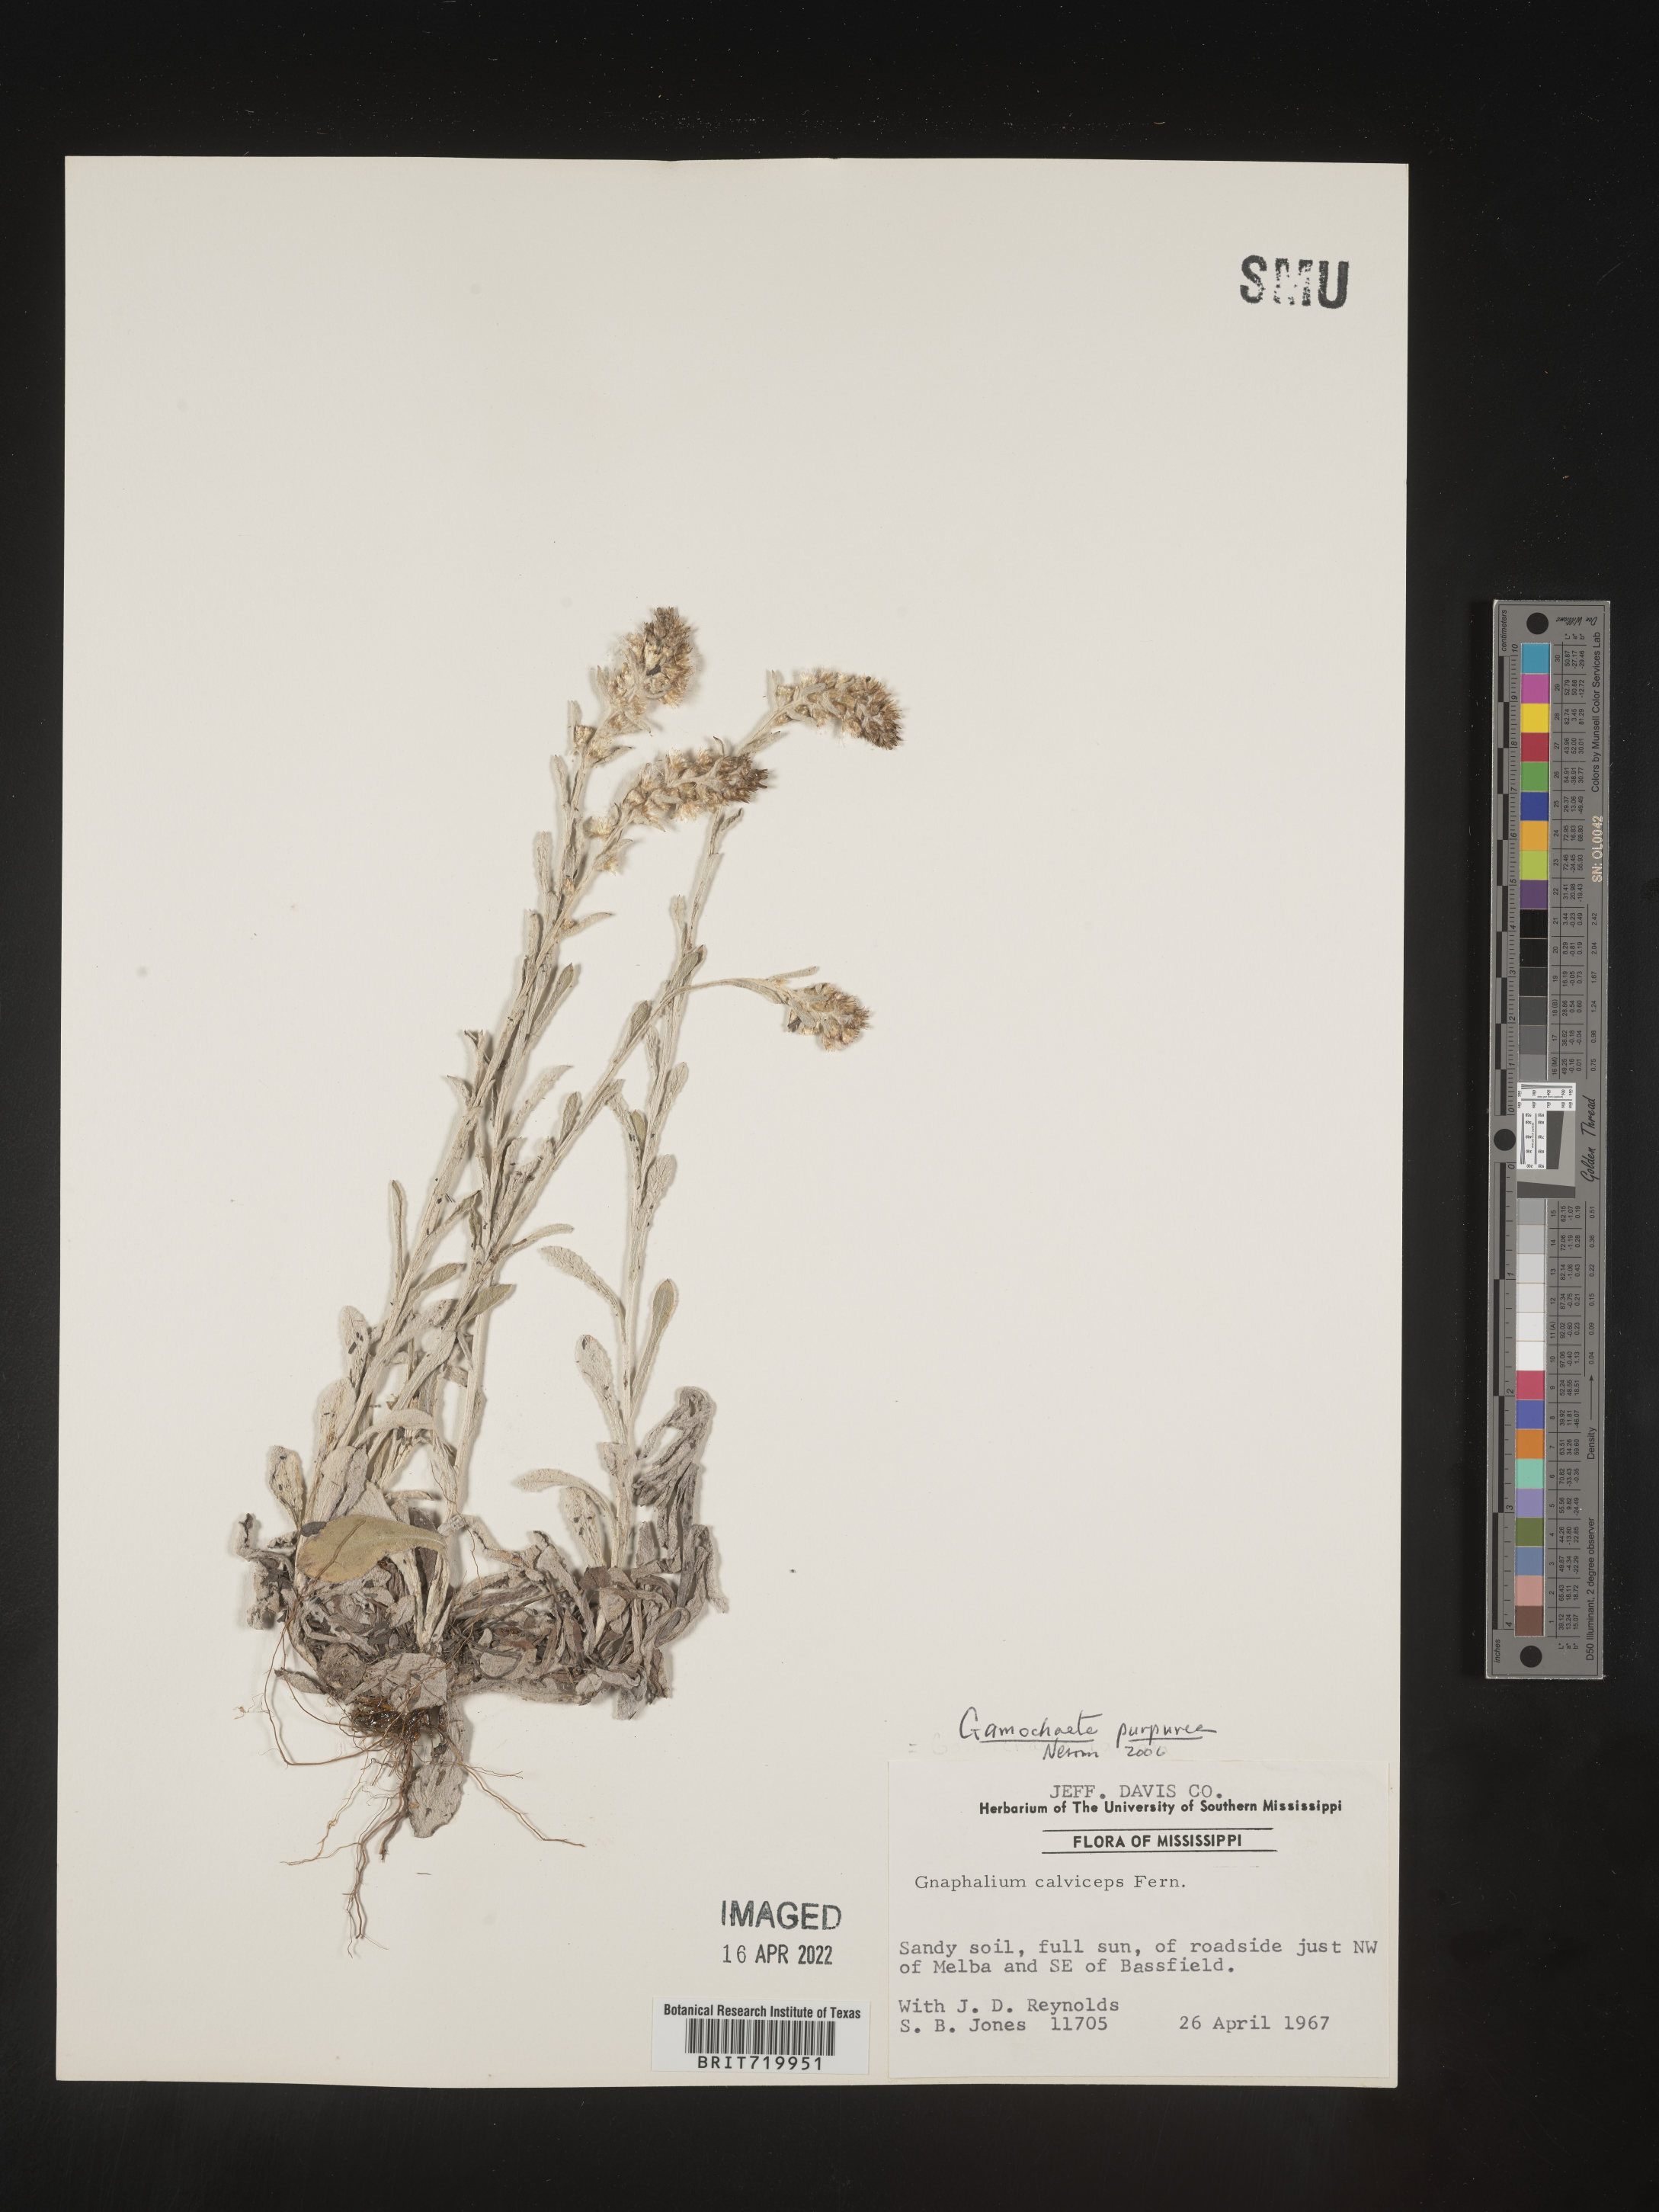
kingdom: Plantae
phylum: Tracheophyta
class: Magnoliopsida
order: Asterales
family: Asteraceae
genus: Gamochaeta
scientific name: Gamochaeta purpurea
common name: Purple cudweed
